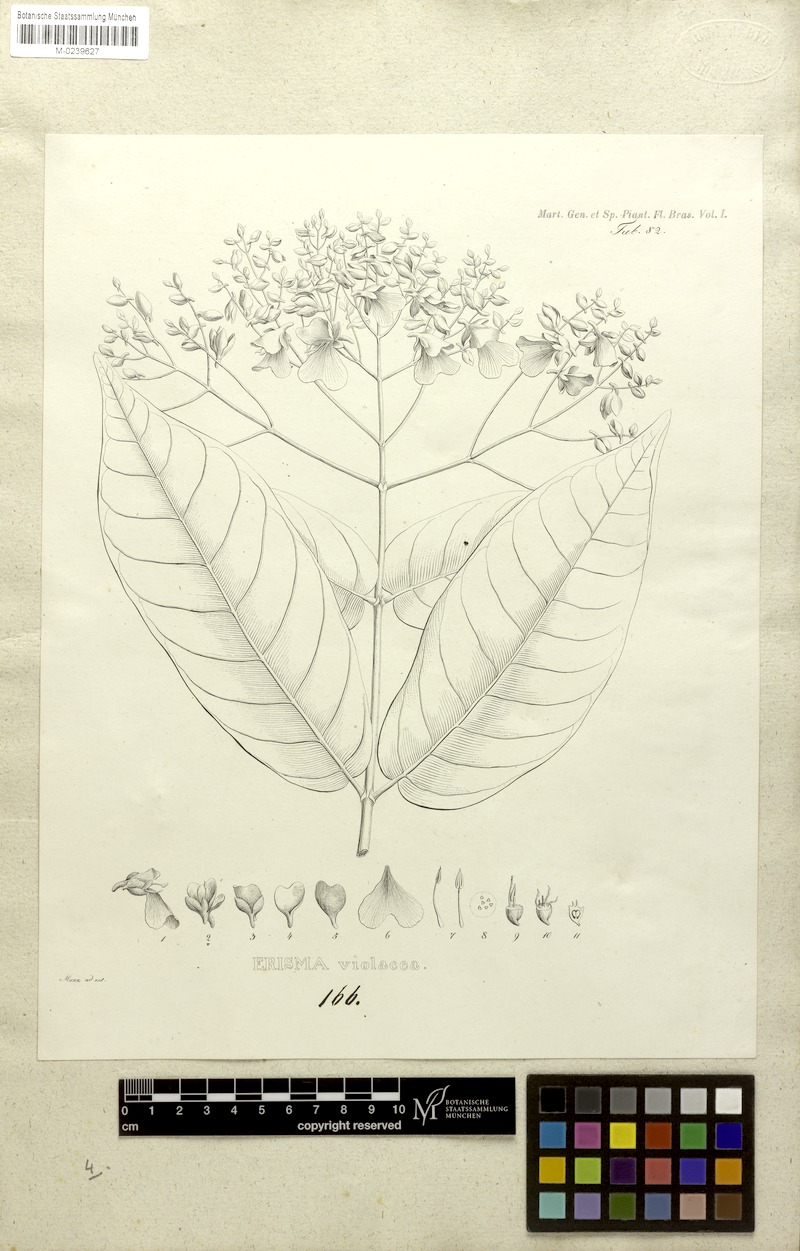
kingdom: Plantae
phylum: Tracheophyta
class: Magnoliopsida
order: Myrtales
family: Vochysiaceae
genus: Erisma
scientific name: Erisma calcaratum
